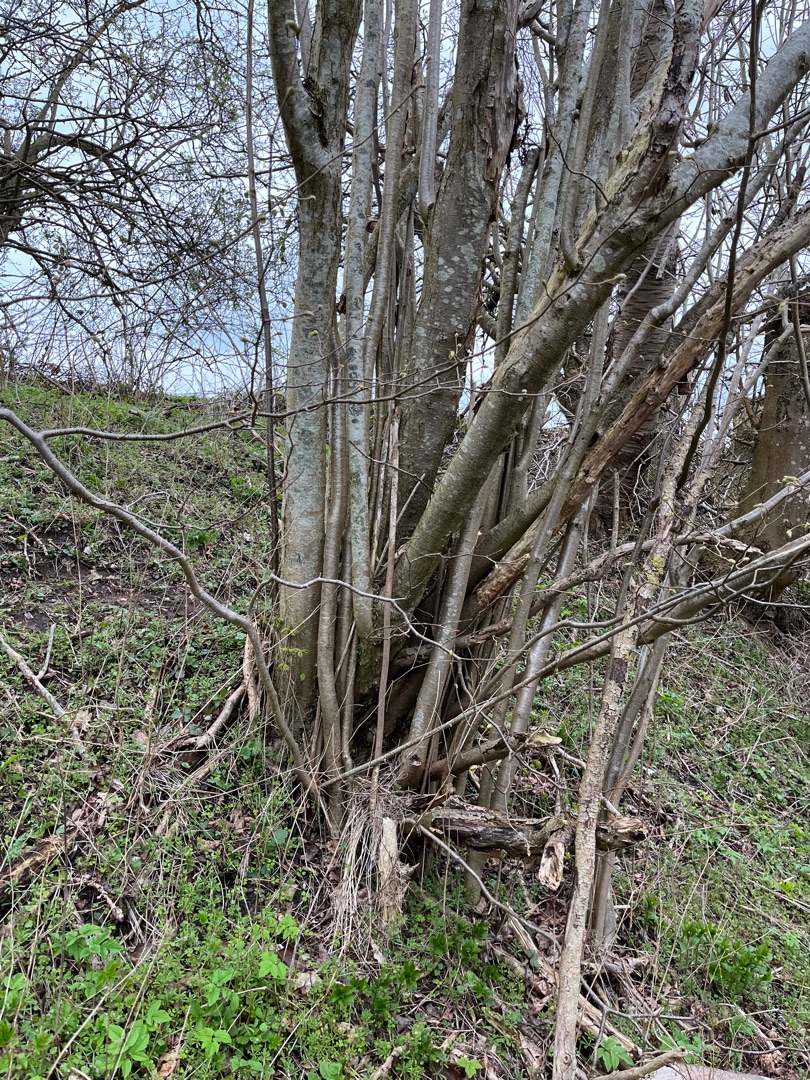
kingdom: Plantae
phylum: Tracheophyta
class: Magnoliopsida
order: Fagales
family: Betulaceae
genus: Corylus
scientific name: Corylus avellana
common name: Hassel
